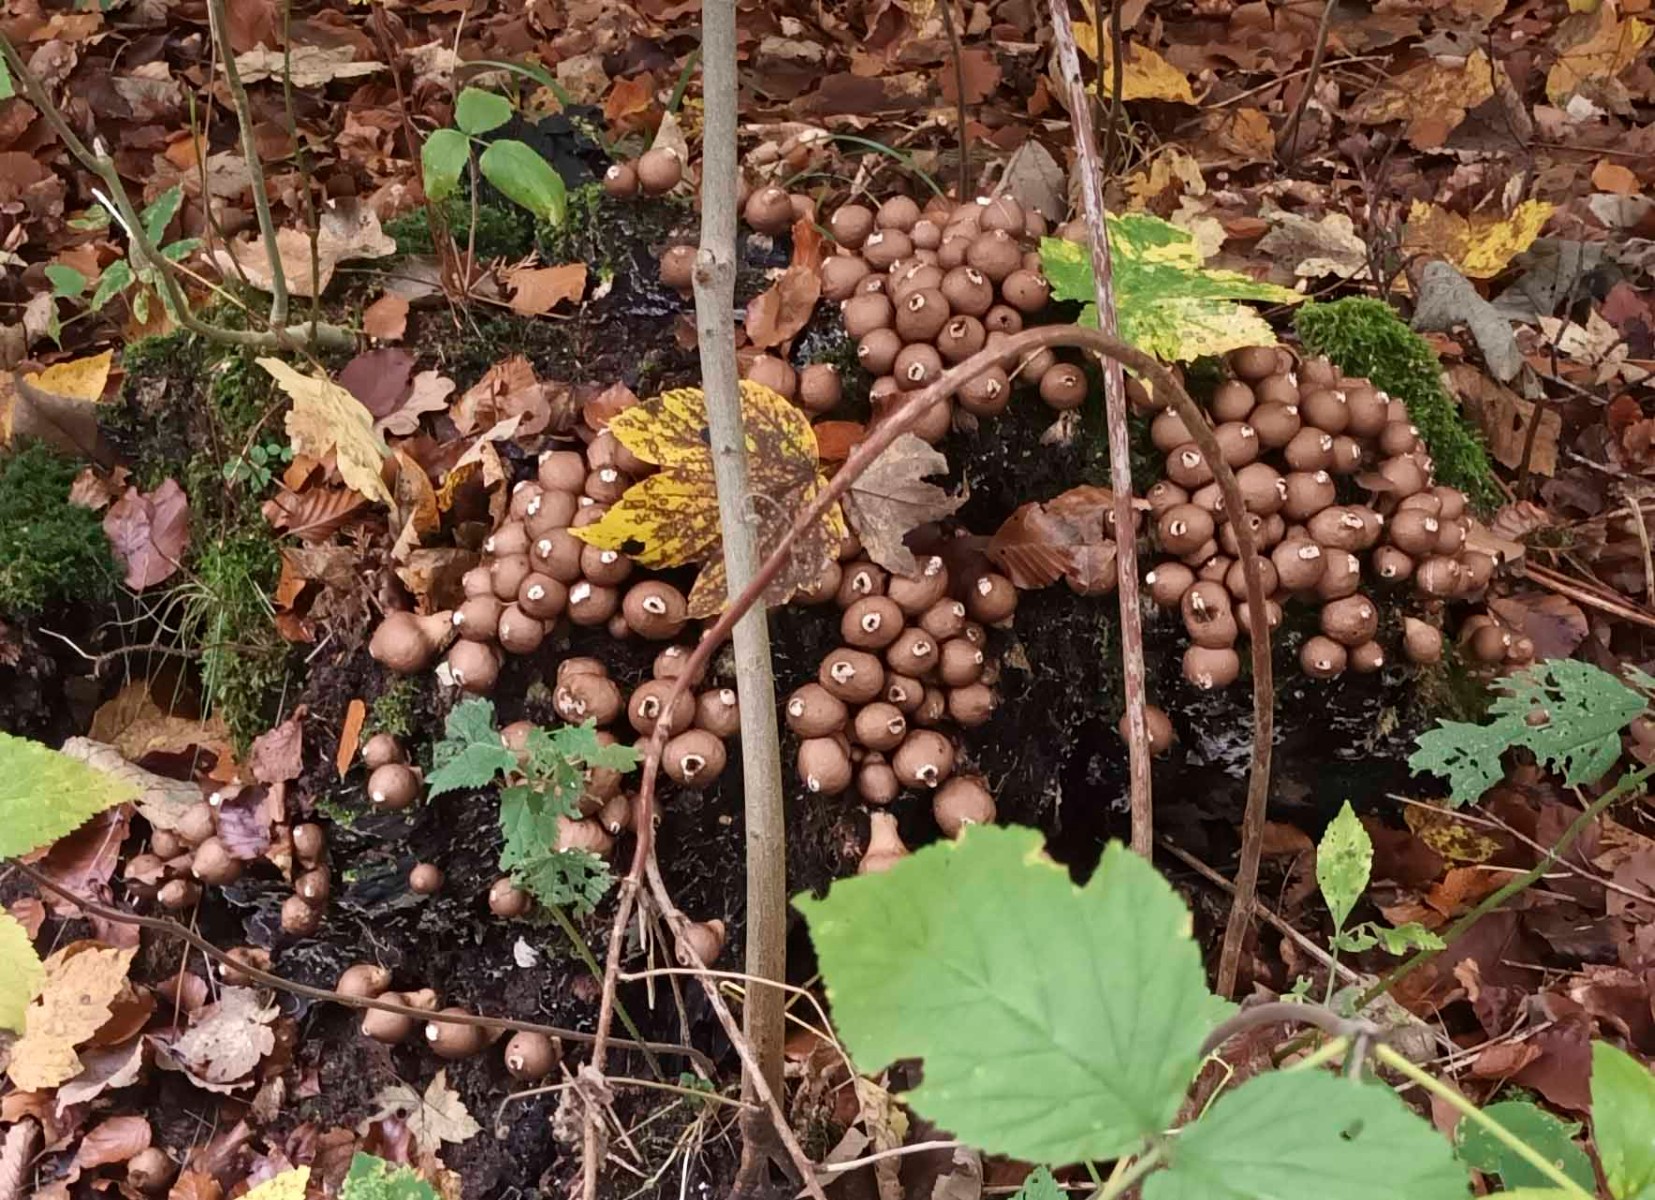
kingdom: Fungi
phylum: Basidiomycota
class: Agaricomycetes
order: Agaricales
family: Lycoperdaceae
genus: Apioperdon
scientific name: Apioperdon pyriforme
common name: pære-støvbold
